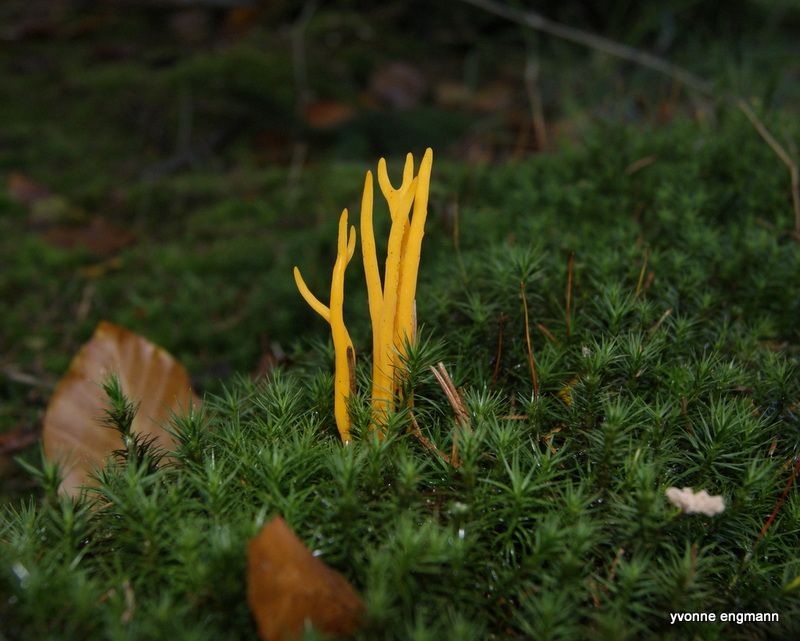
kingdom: Fungi
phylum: Basidiomycota
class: Dacrymycetes
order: Dacrymycetales
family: Dacrymycetaceae
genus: Calocera
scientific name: Calocera viscosa
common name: almindelig guldgaffel
